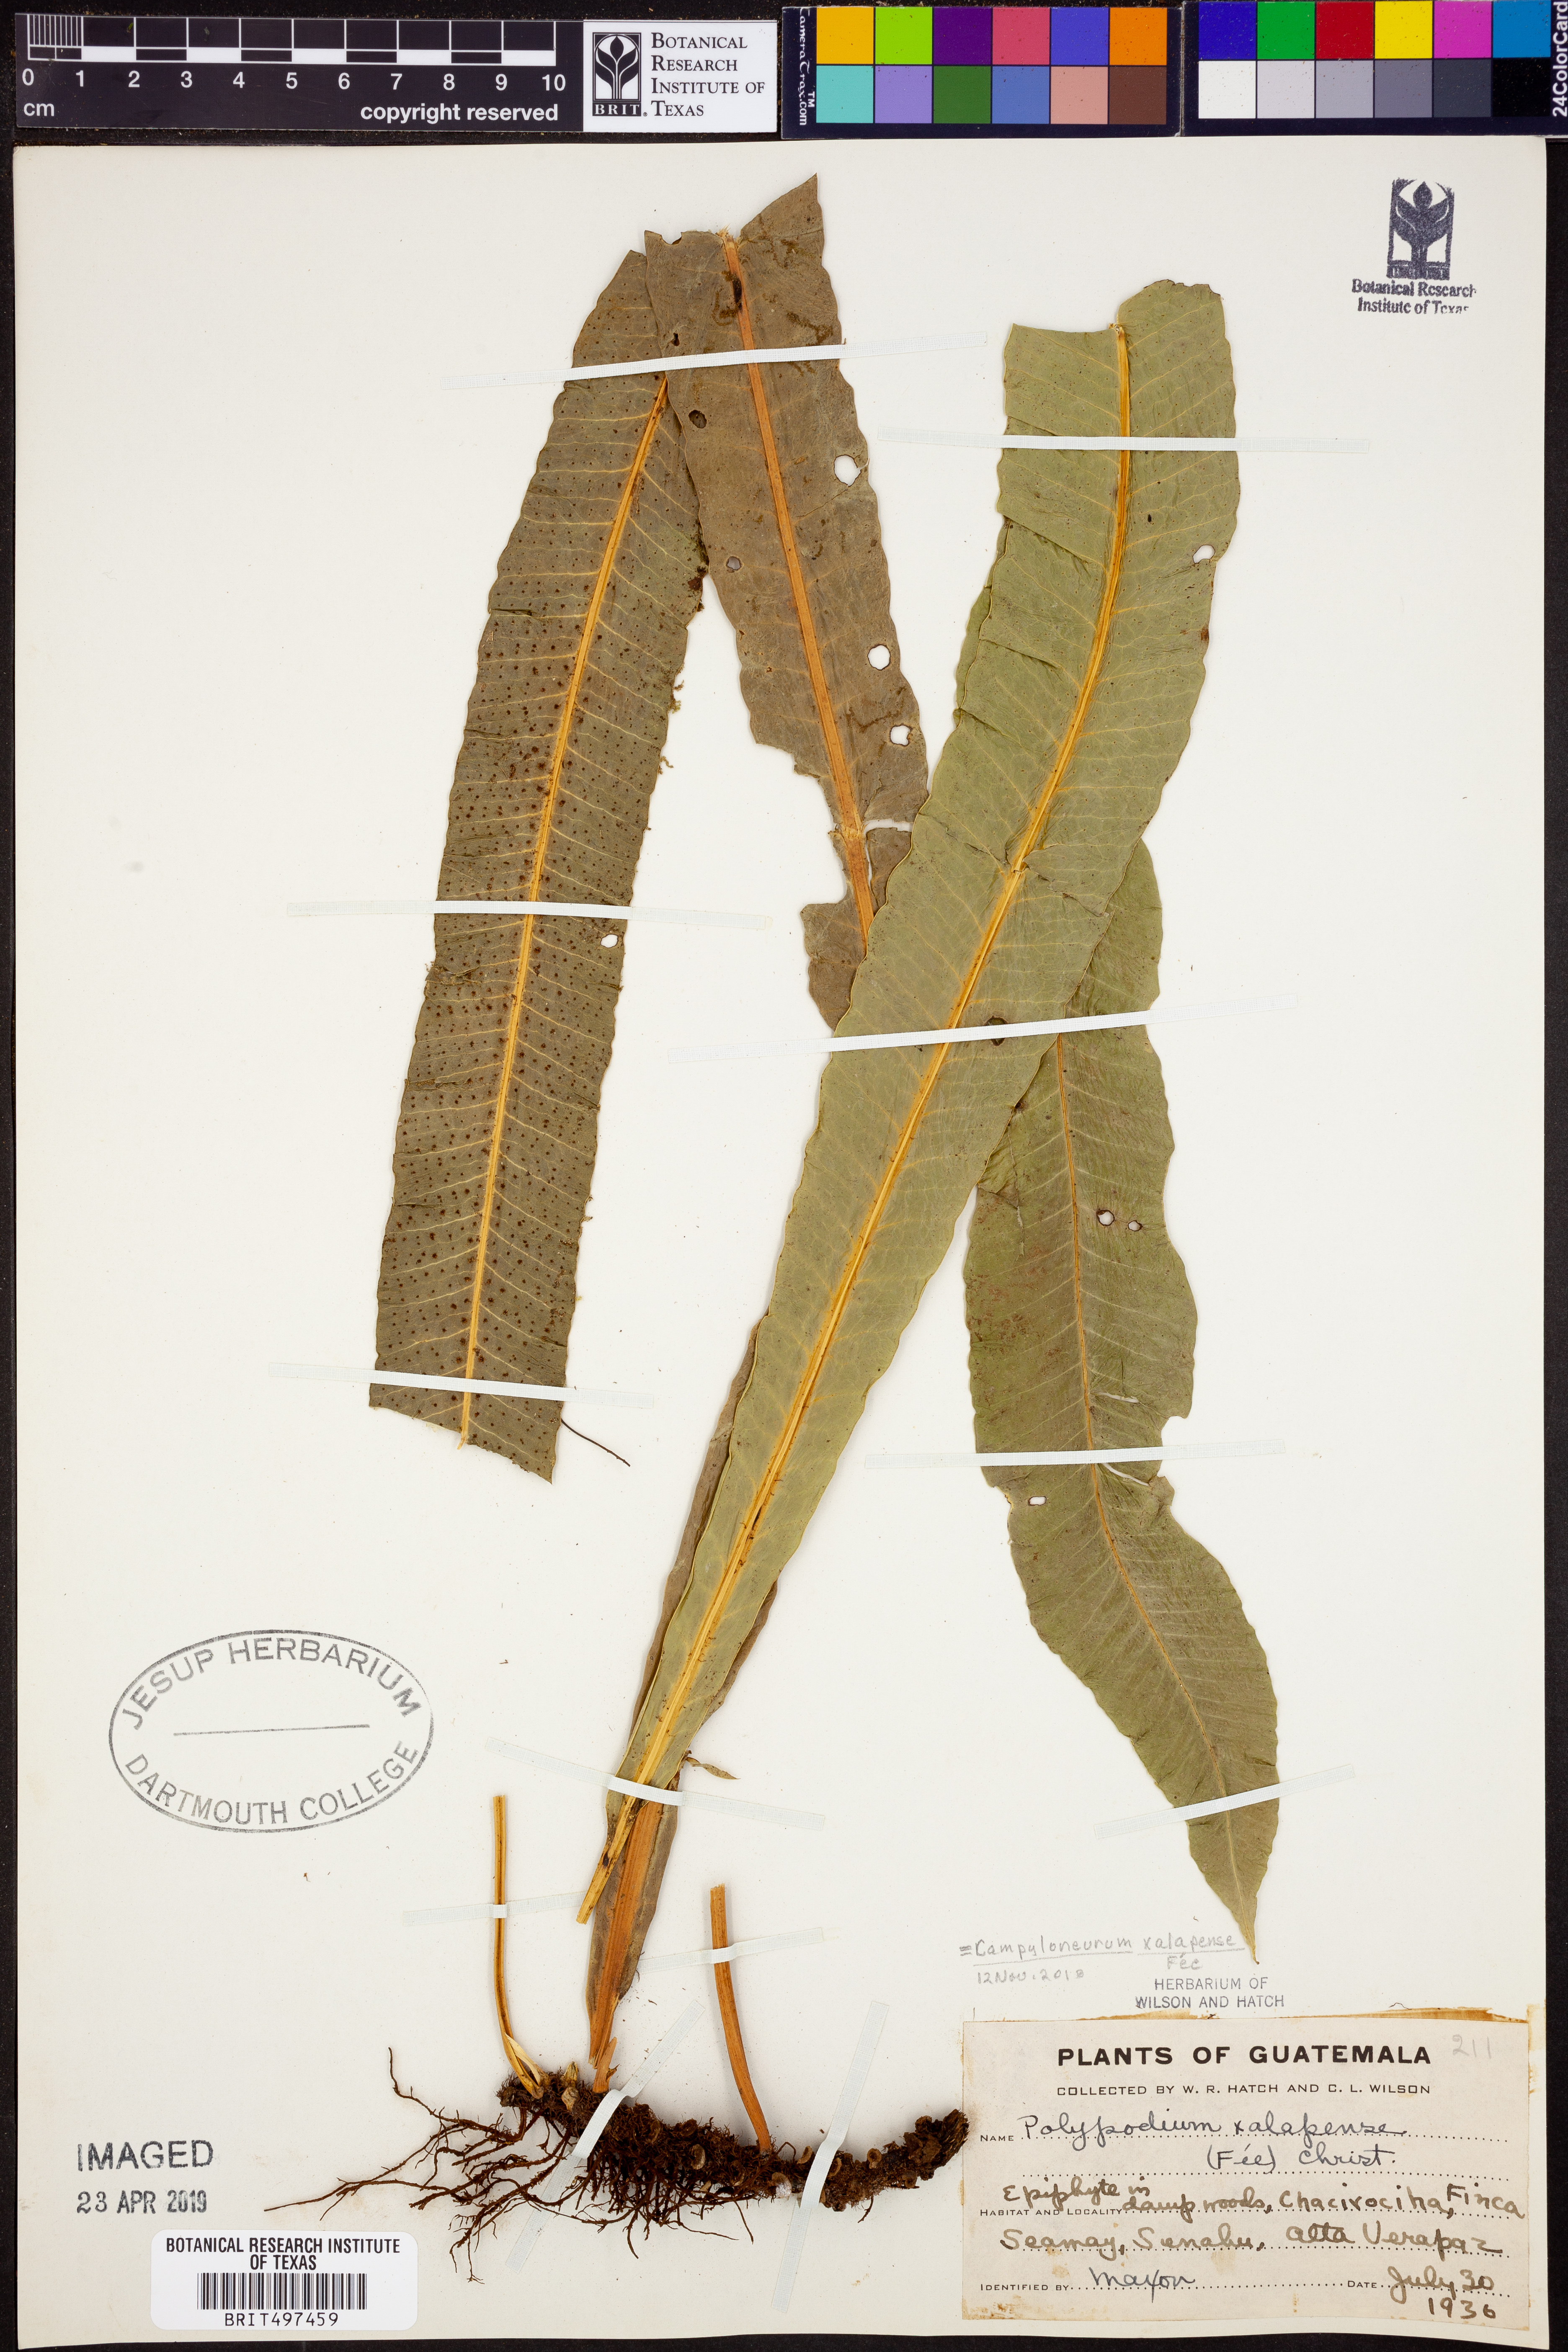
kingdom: Plantae
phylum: Tracheophyta
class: Polypodiopsida
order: Polypodiales
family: Polypodiaceae
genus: Campyloneurum
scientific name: Campyloneurum xalapense
